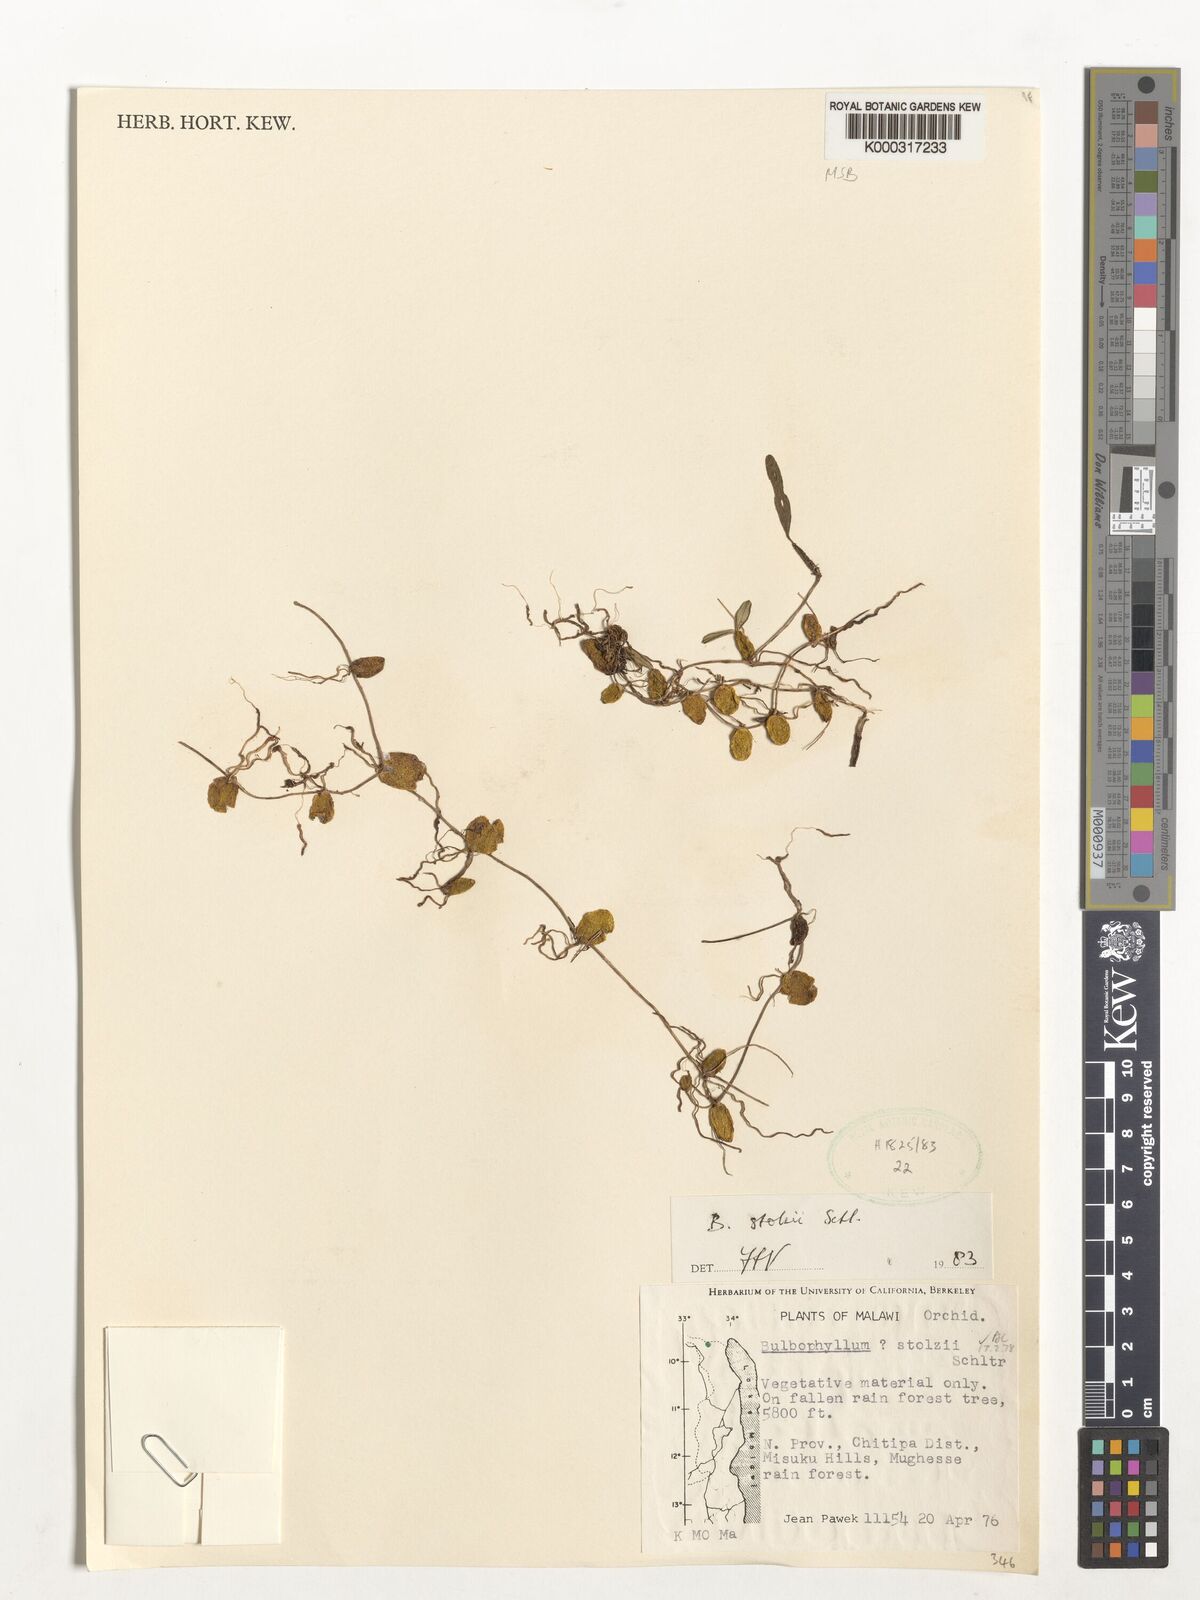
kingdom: Plantae
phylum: Tracheophyta
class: Liliopsida
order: Asparagales
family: Orchidaceae
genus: Bulbophyllum
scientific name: Bulbophyllum stolzii
